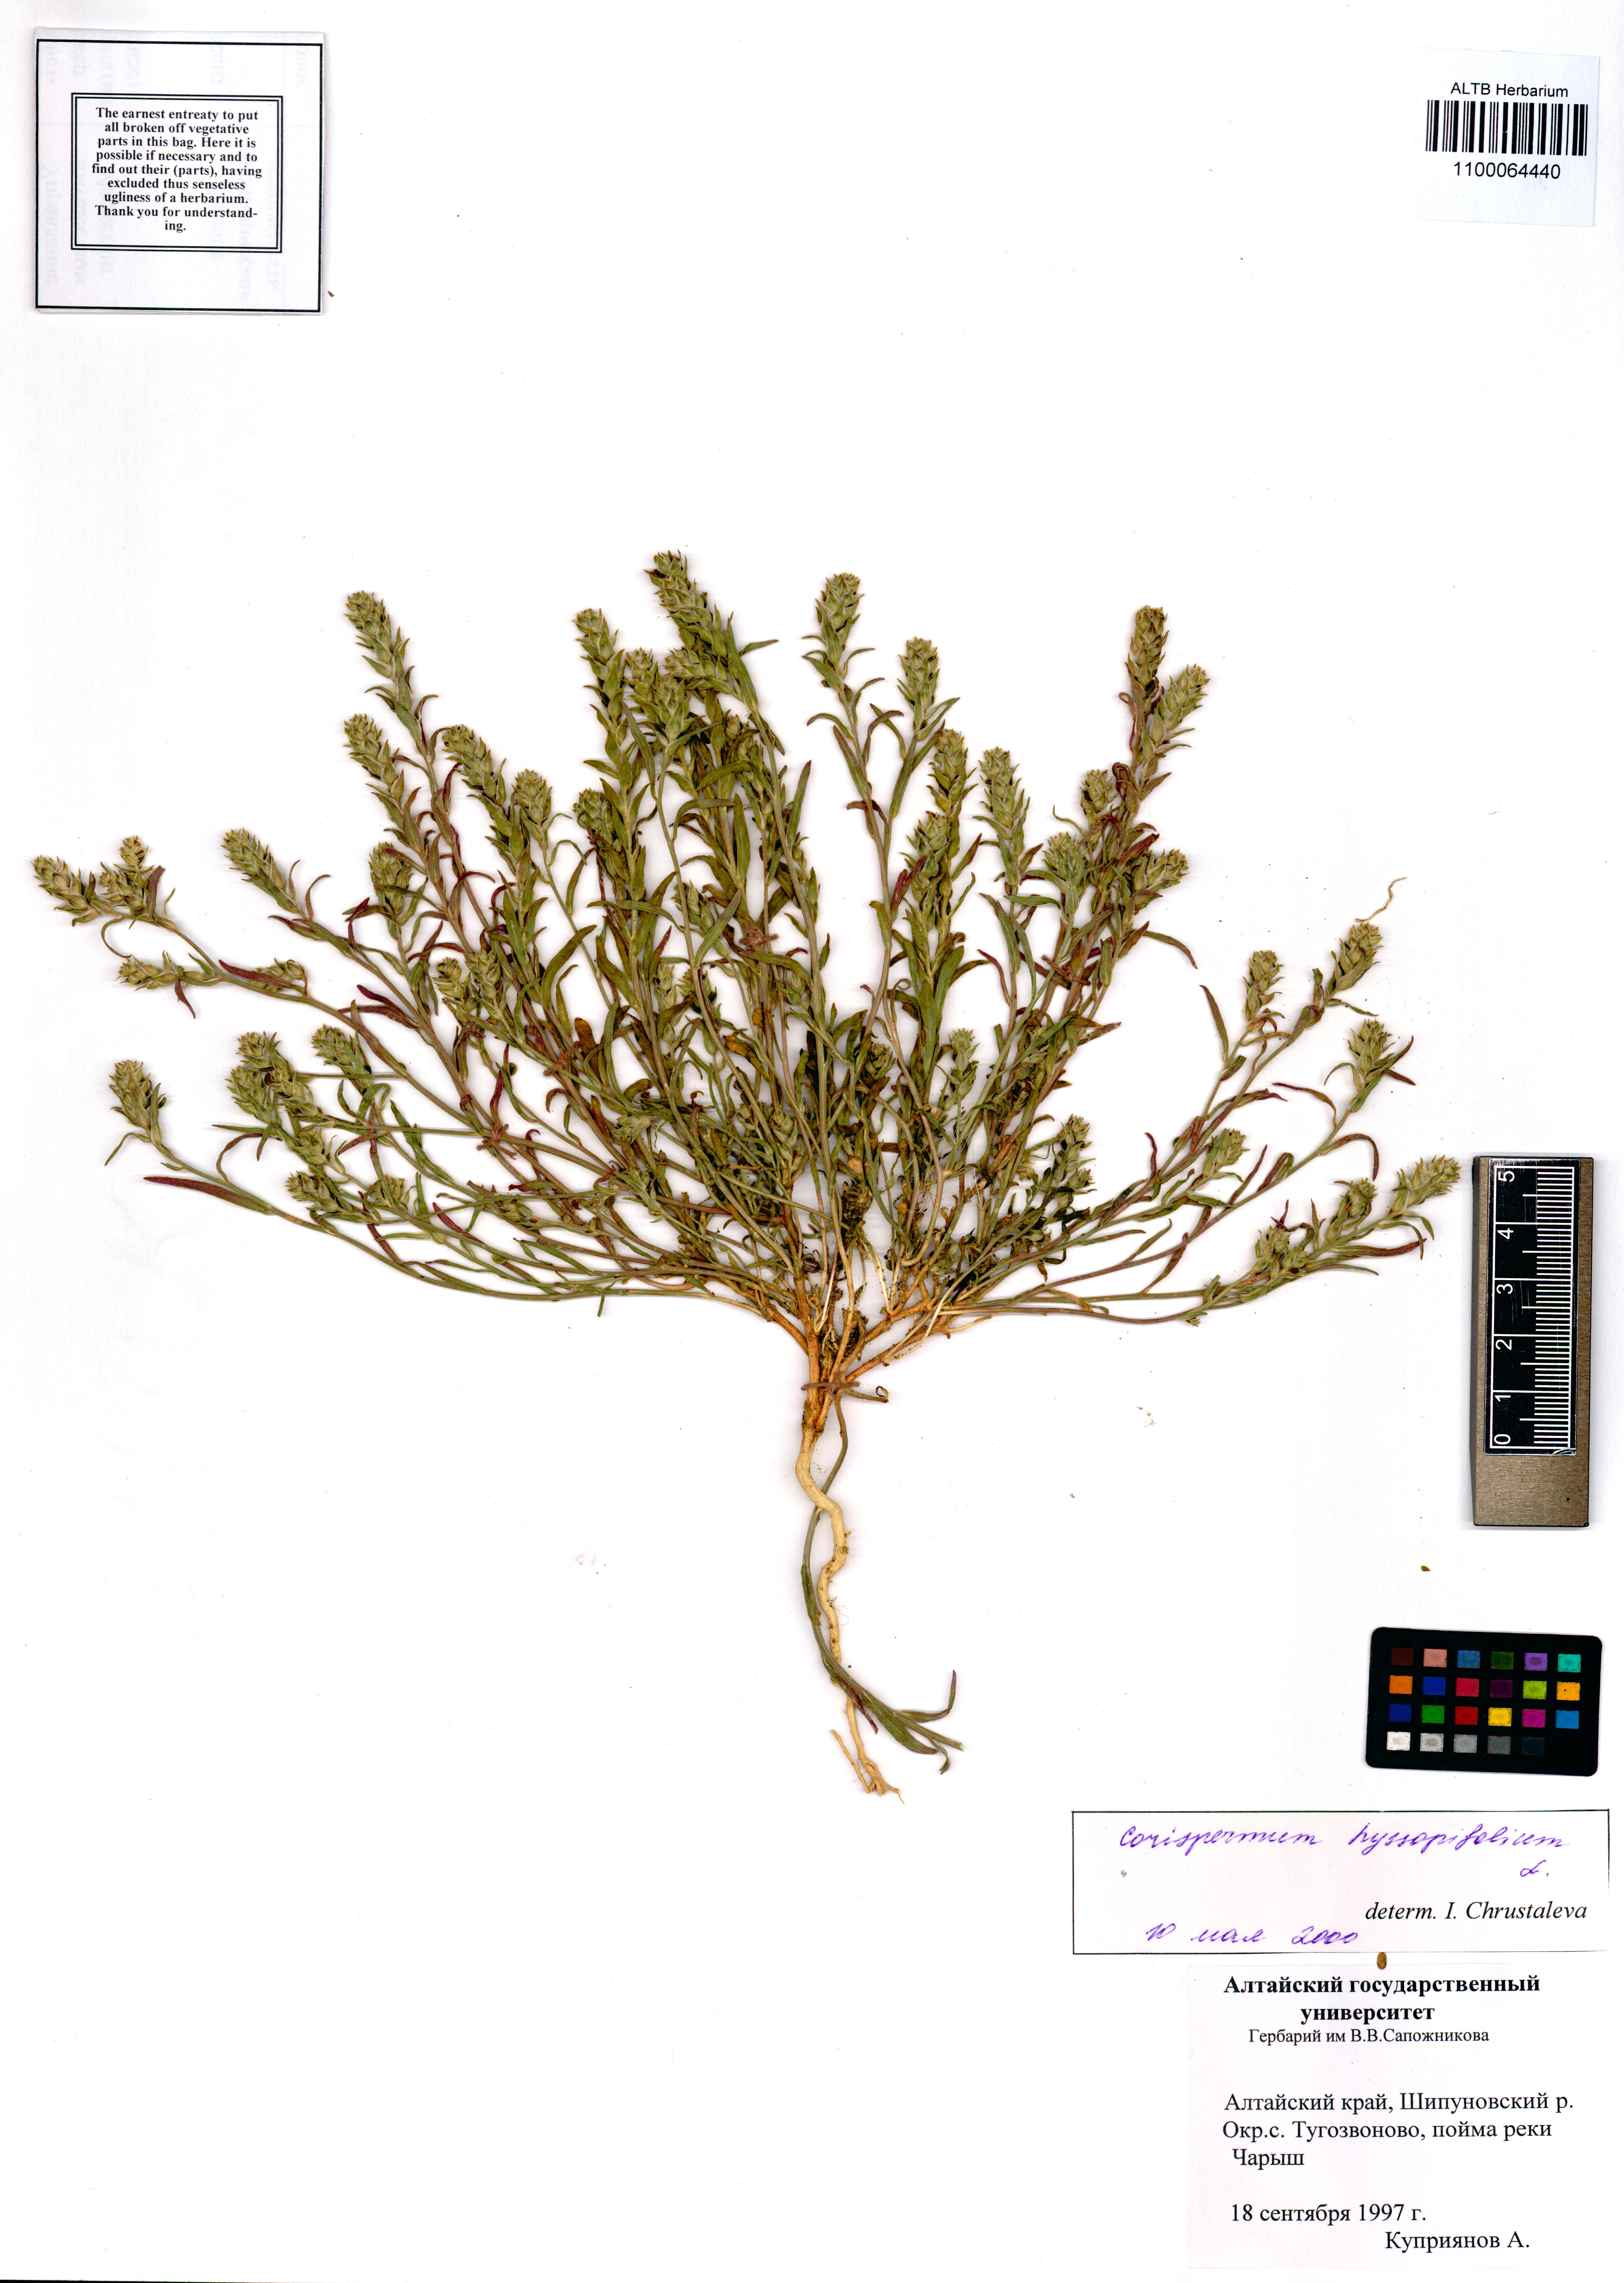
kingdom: Plantae
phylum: Tracheophyta
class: Magnoliopsida
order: Caryophyllales
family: Amaranthaceae
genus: Corispermum
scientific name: Corispermum hyssopifolium
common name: Bugseed
